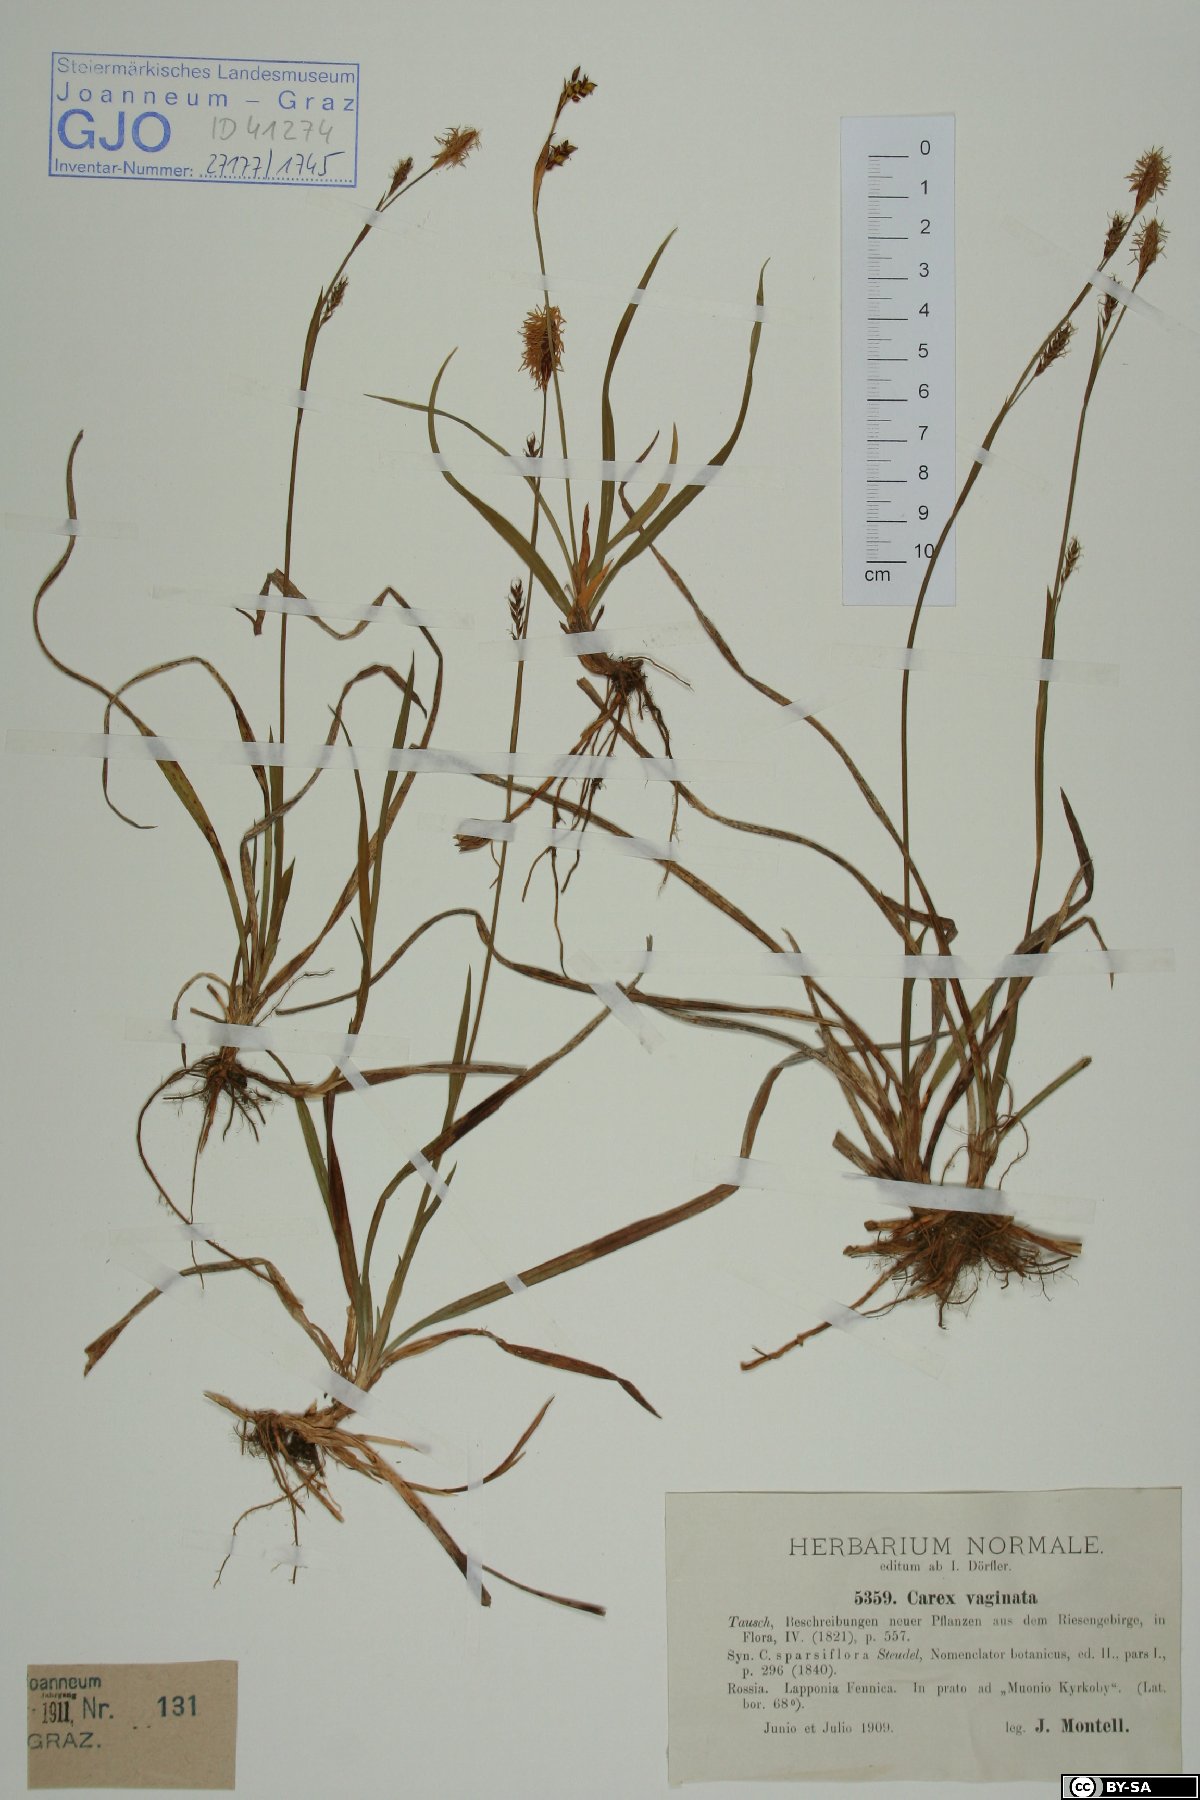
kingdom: Plantae
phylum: Tracheophyta
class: Liliopsida
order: Poales
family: Cyperaceae
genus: Carex
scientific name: Carex vaginata
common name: Sheathed sedge
